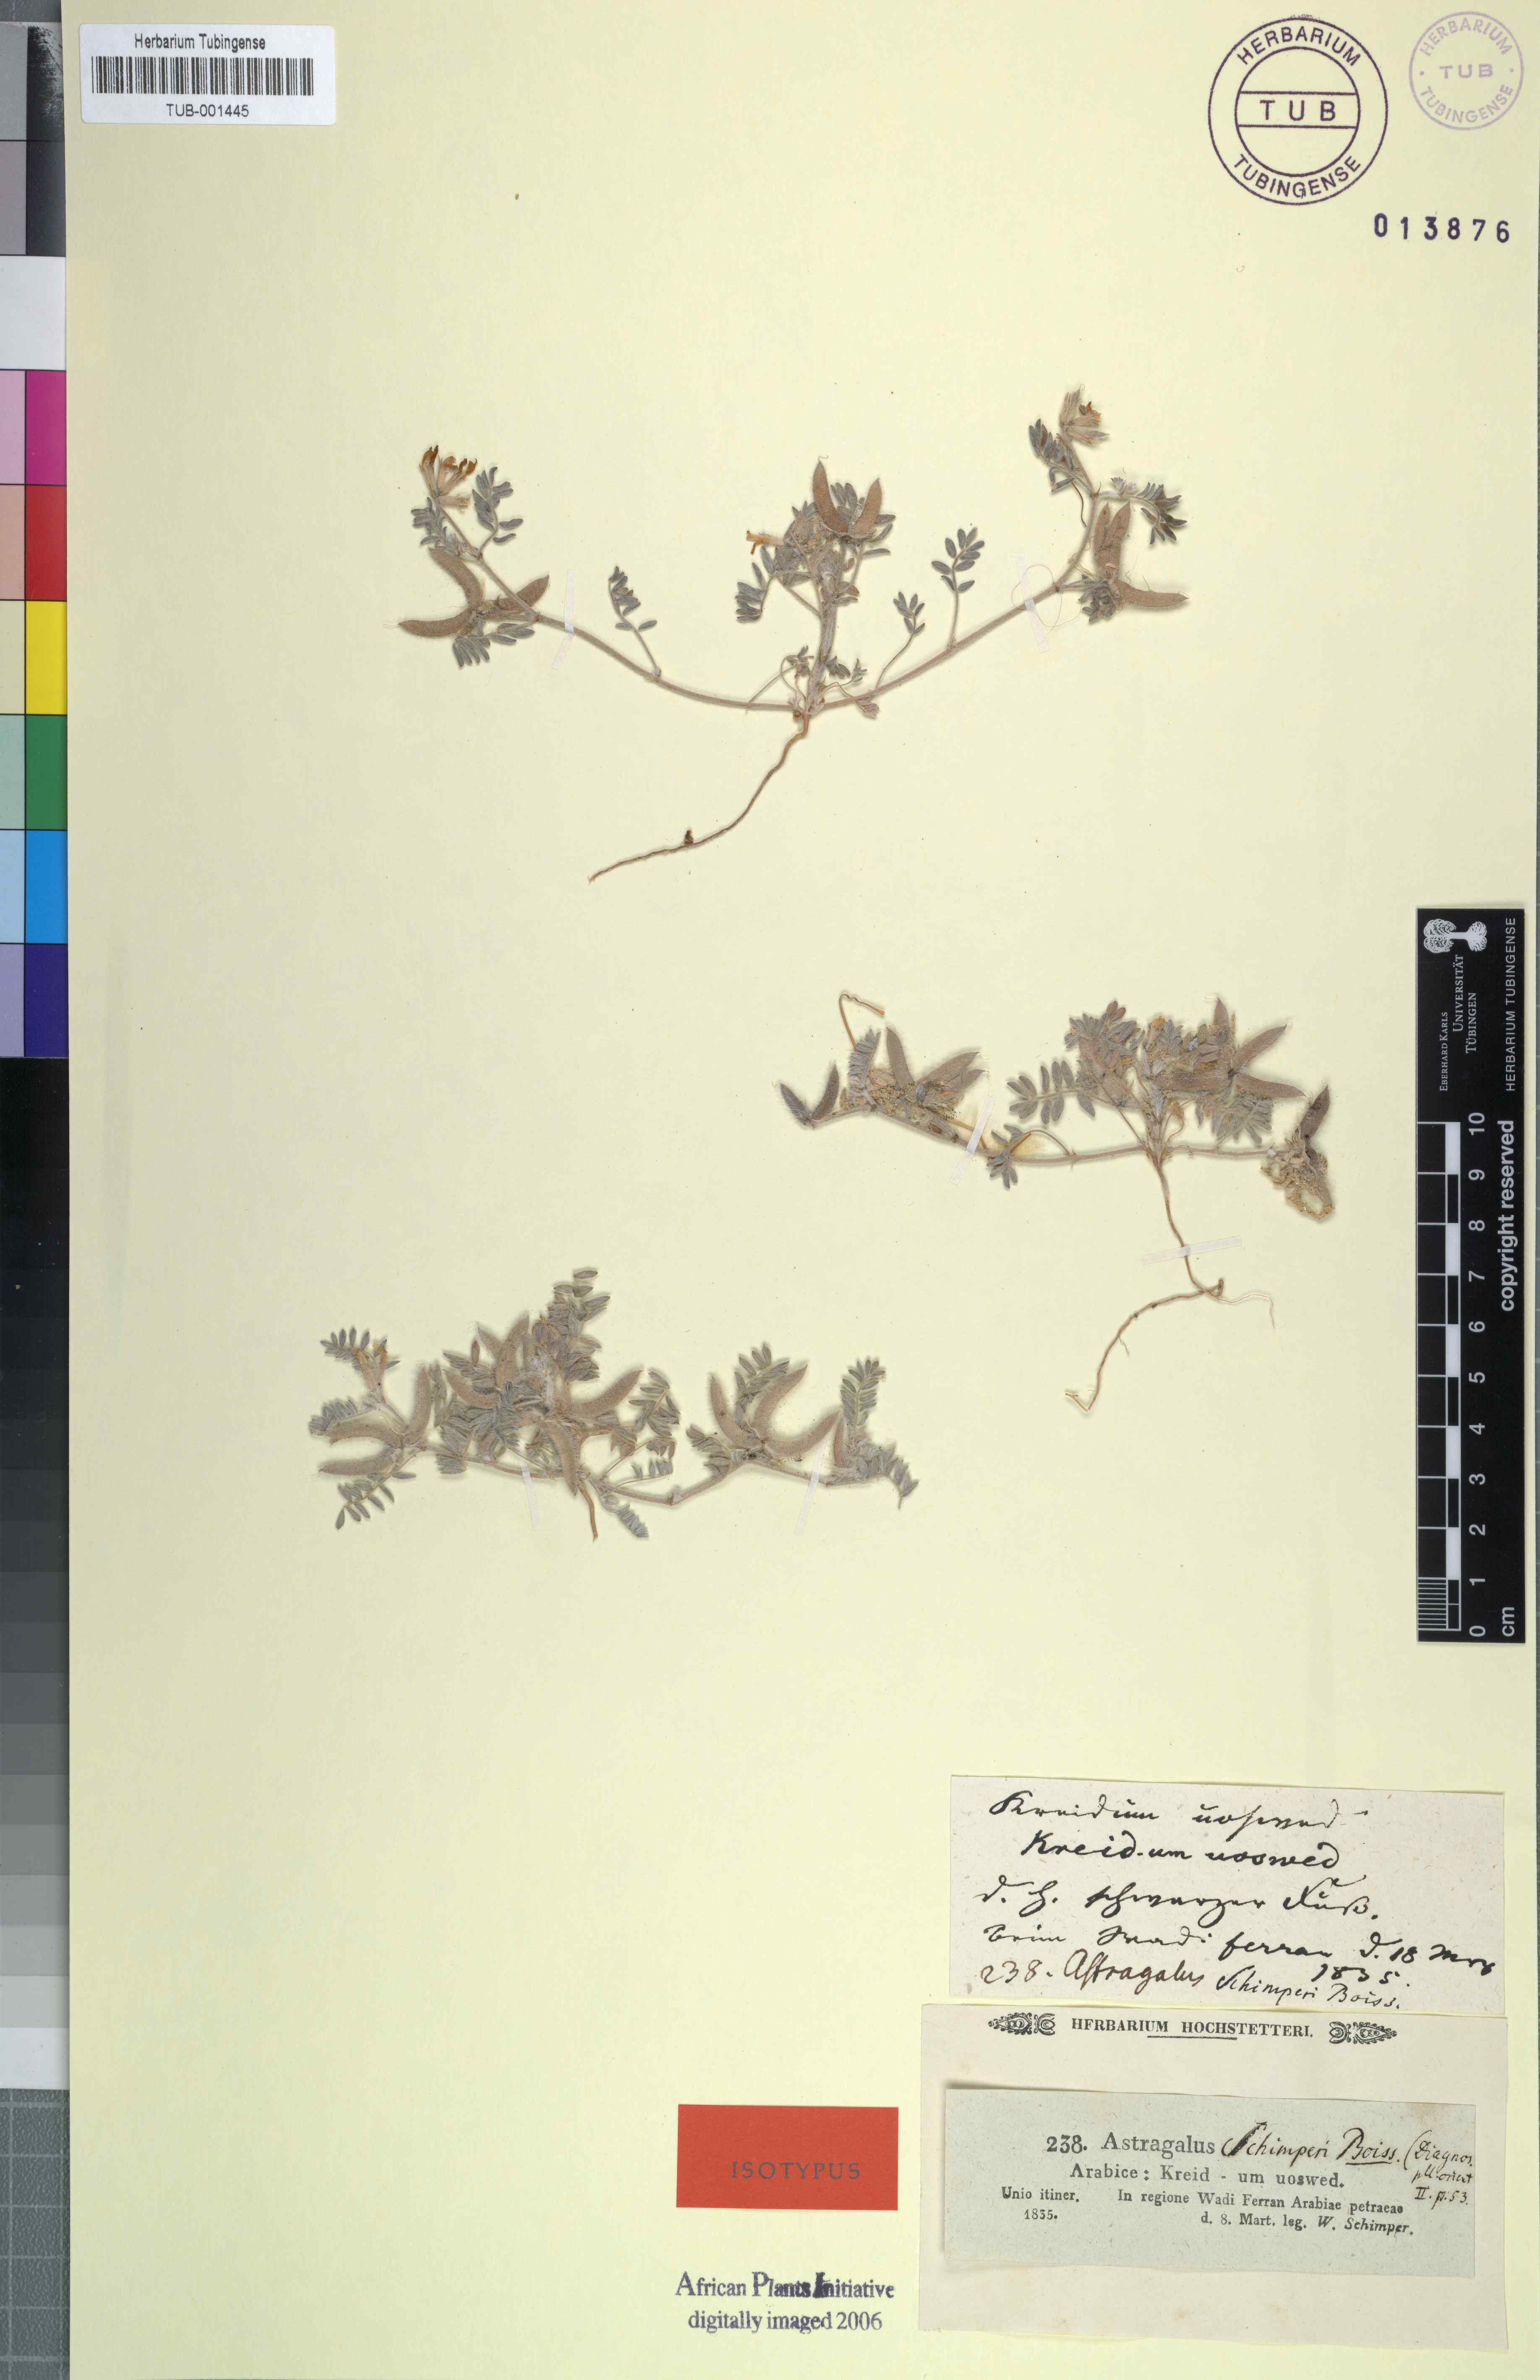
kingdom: Plantae
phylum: Tracheophyta
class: Magnoliopsida
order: Fabales
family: Fabaceae
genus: Astragalus
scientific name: Astragalus schimperi
